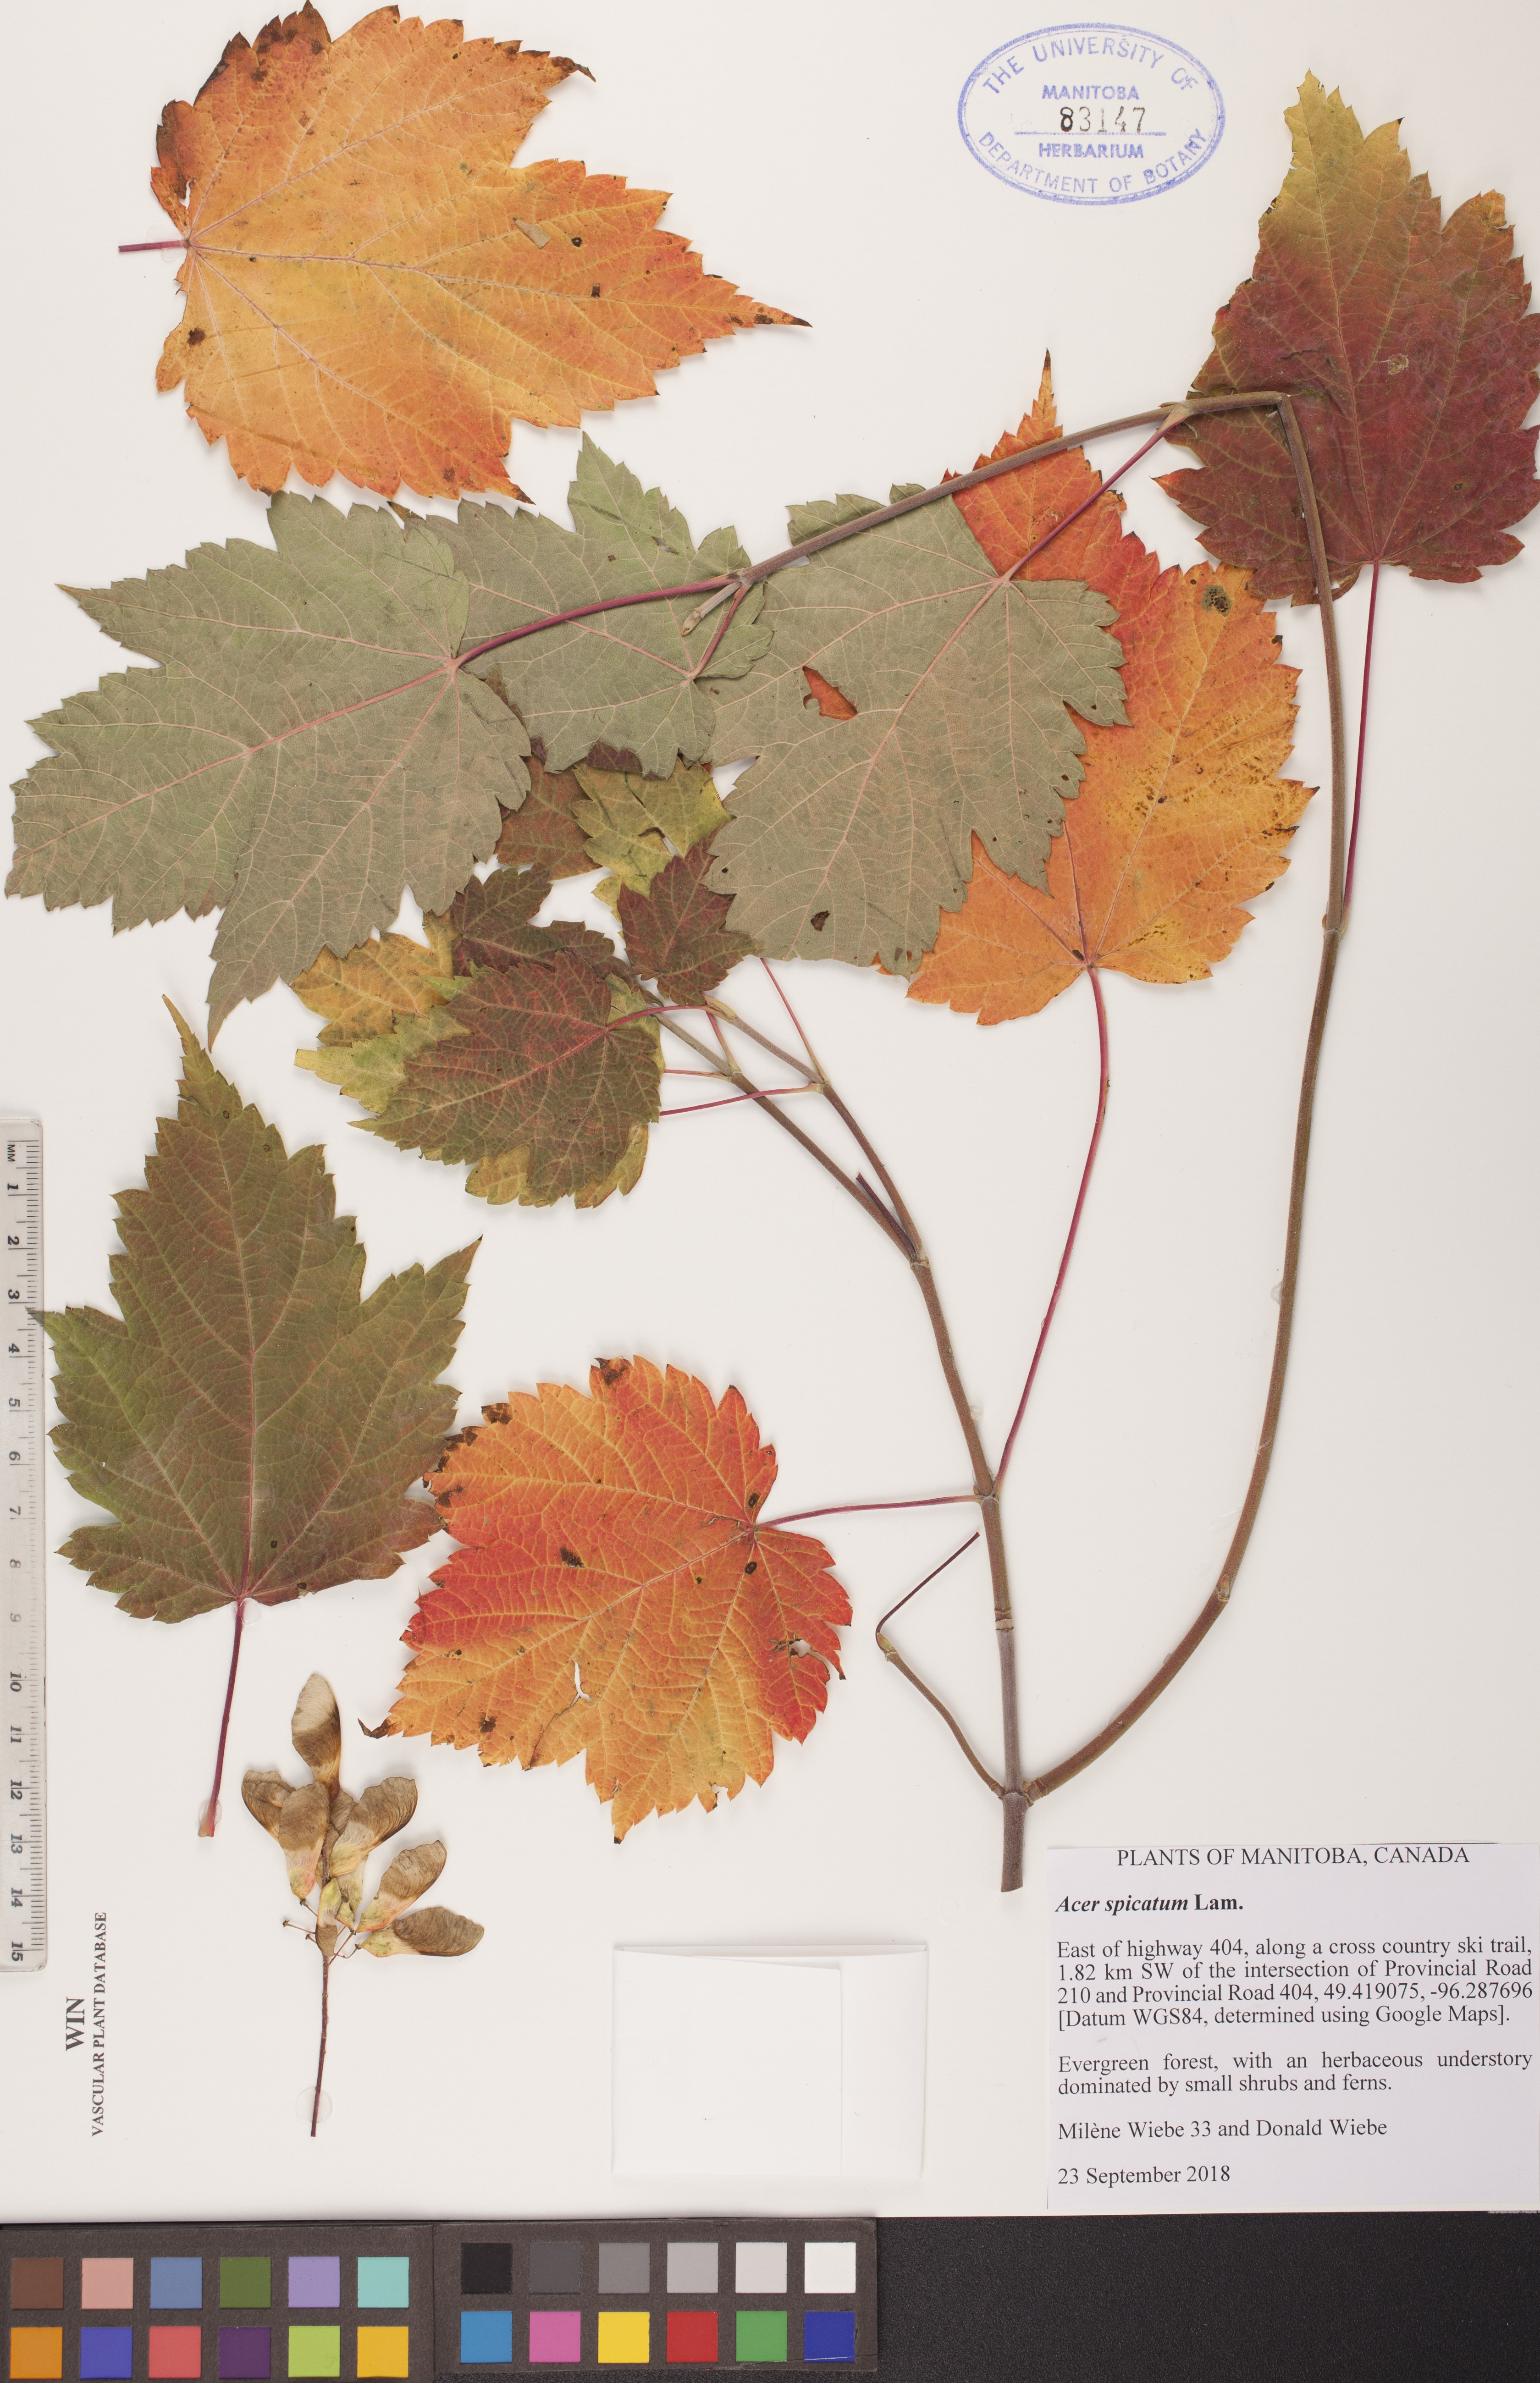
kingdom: Plantae
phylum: Tracheophyta
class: Magnoliopsida
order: Sapindales
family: Sapindaceae
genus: Acer
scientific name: Acer spicatum
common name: Mountain maple
